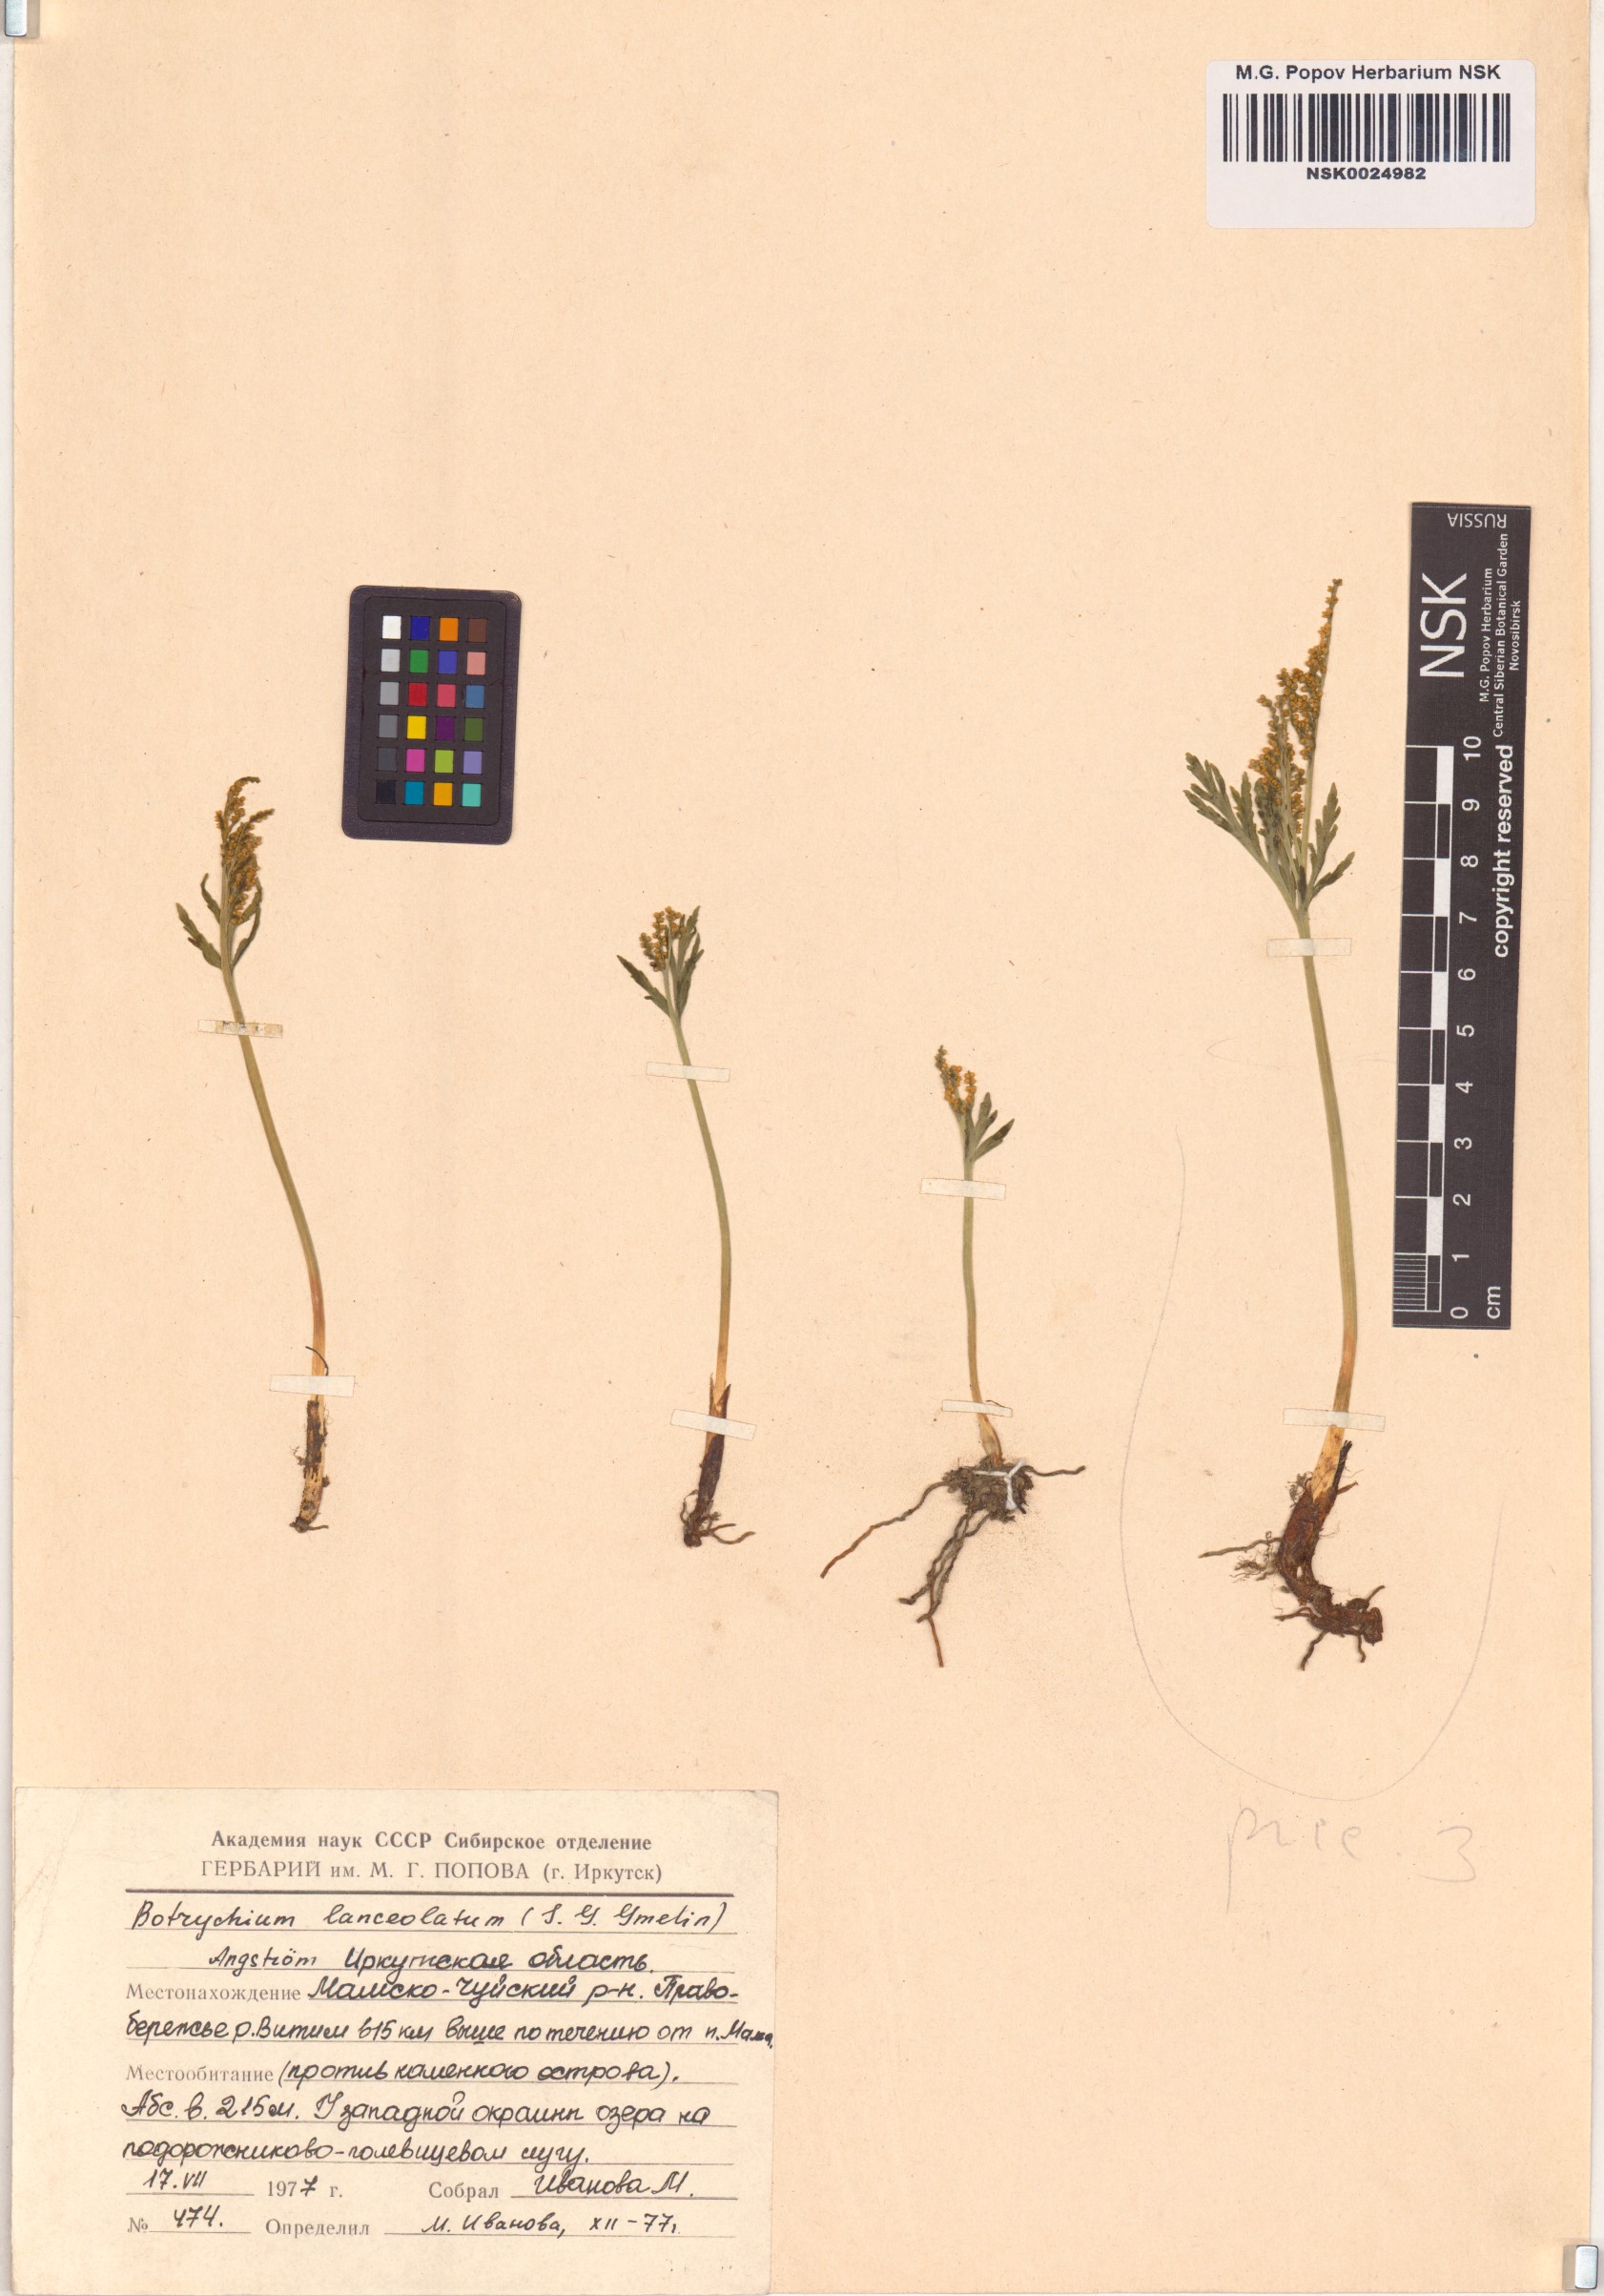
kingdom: Plantae
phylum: Tracheophyta
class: Polypodiopsida
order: Ophioglossales
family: Ophioglossaceae
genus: Botrychium
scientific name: Botrychium lanceolatum
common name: Lance-leaved moonwort
